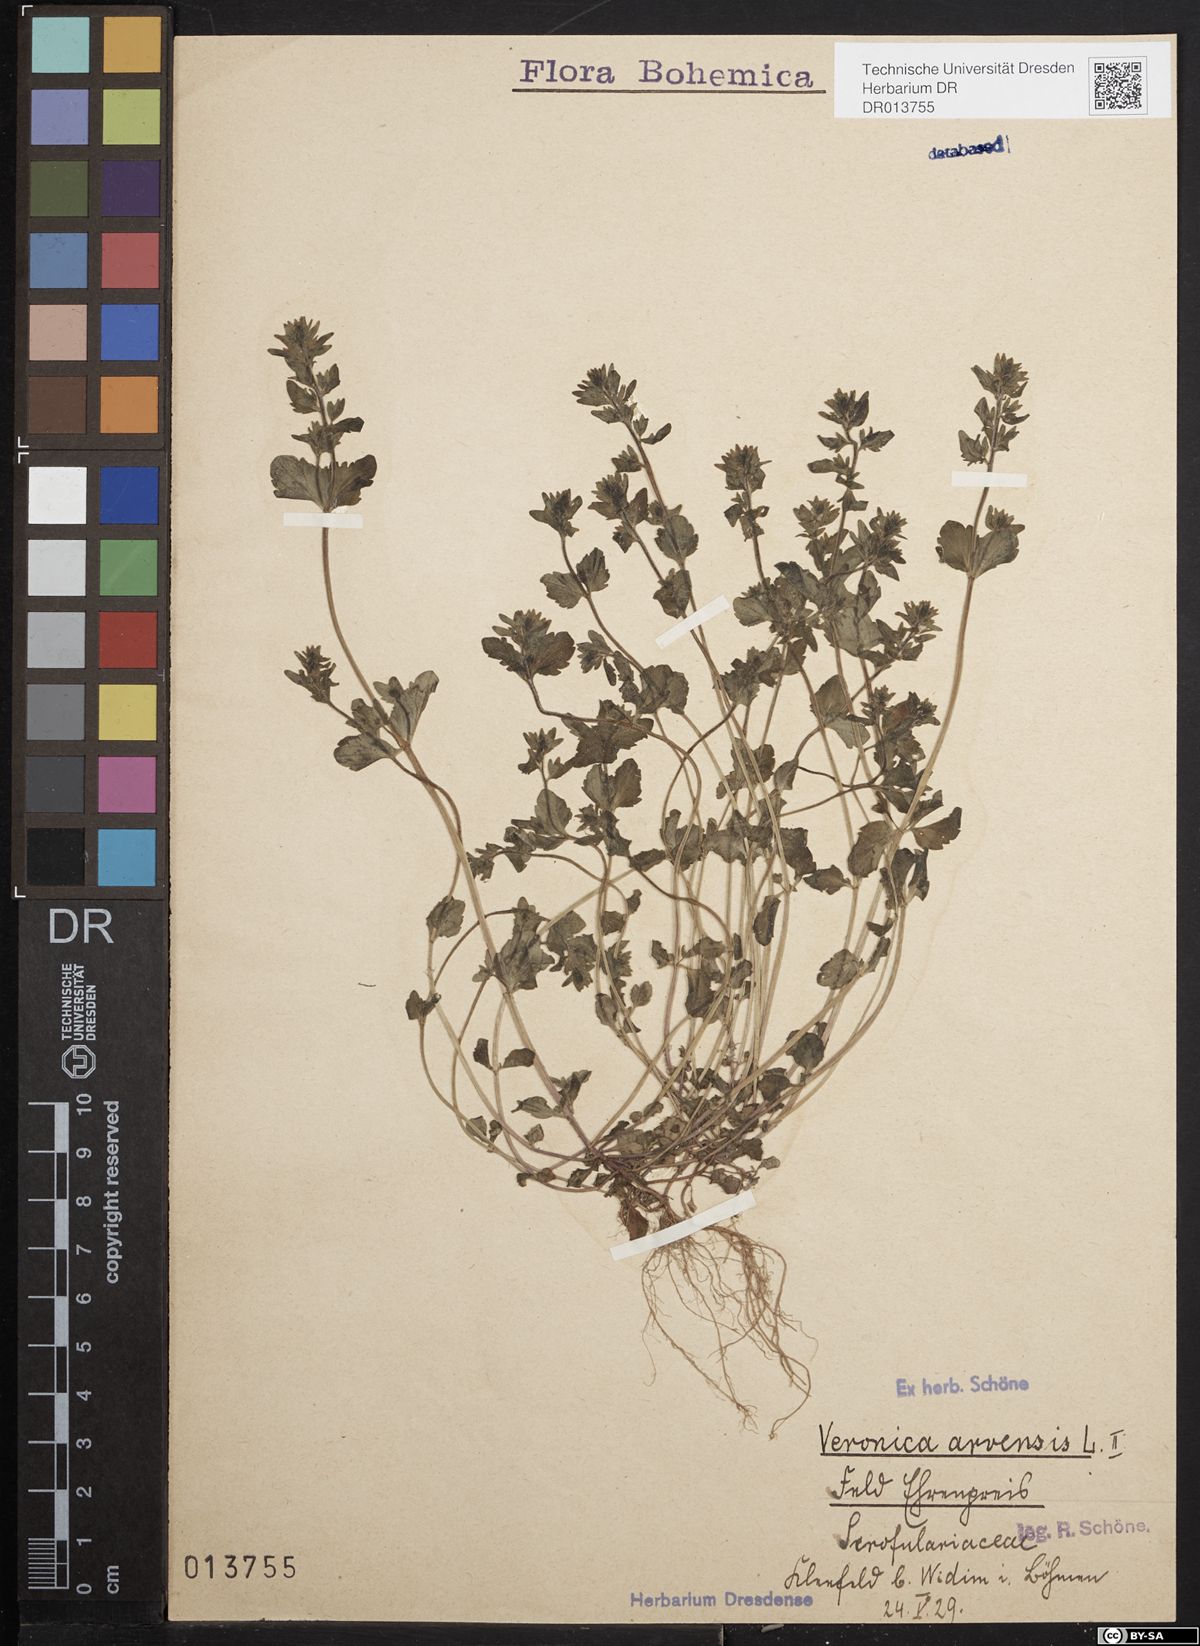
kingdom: Plantae
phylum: Tracheophyta
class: Magnoliopsida
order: Lamiales
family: Plantaginaceae
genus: Veronica
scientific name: Veronica arvensis
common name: Corn speedwell
